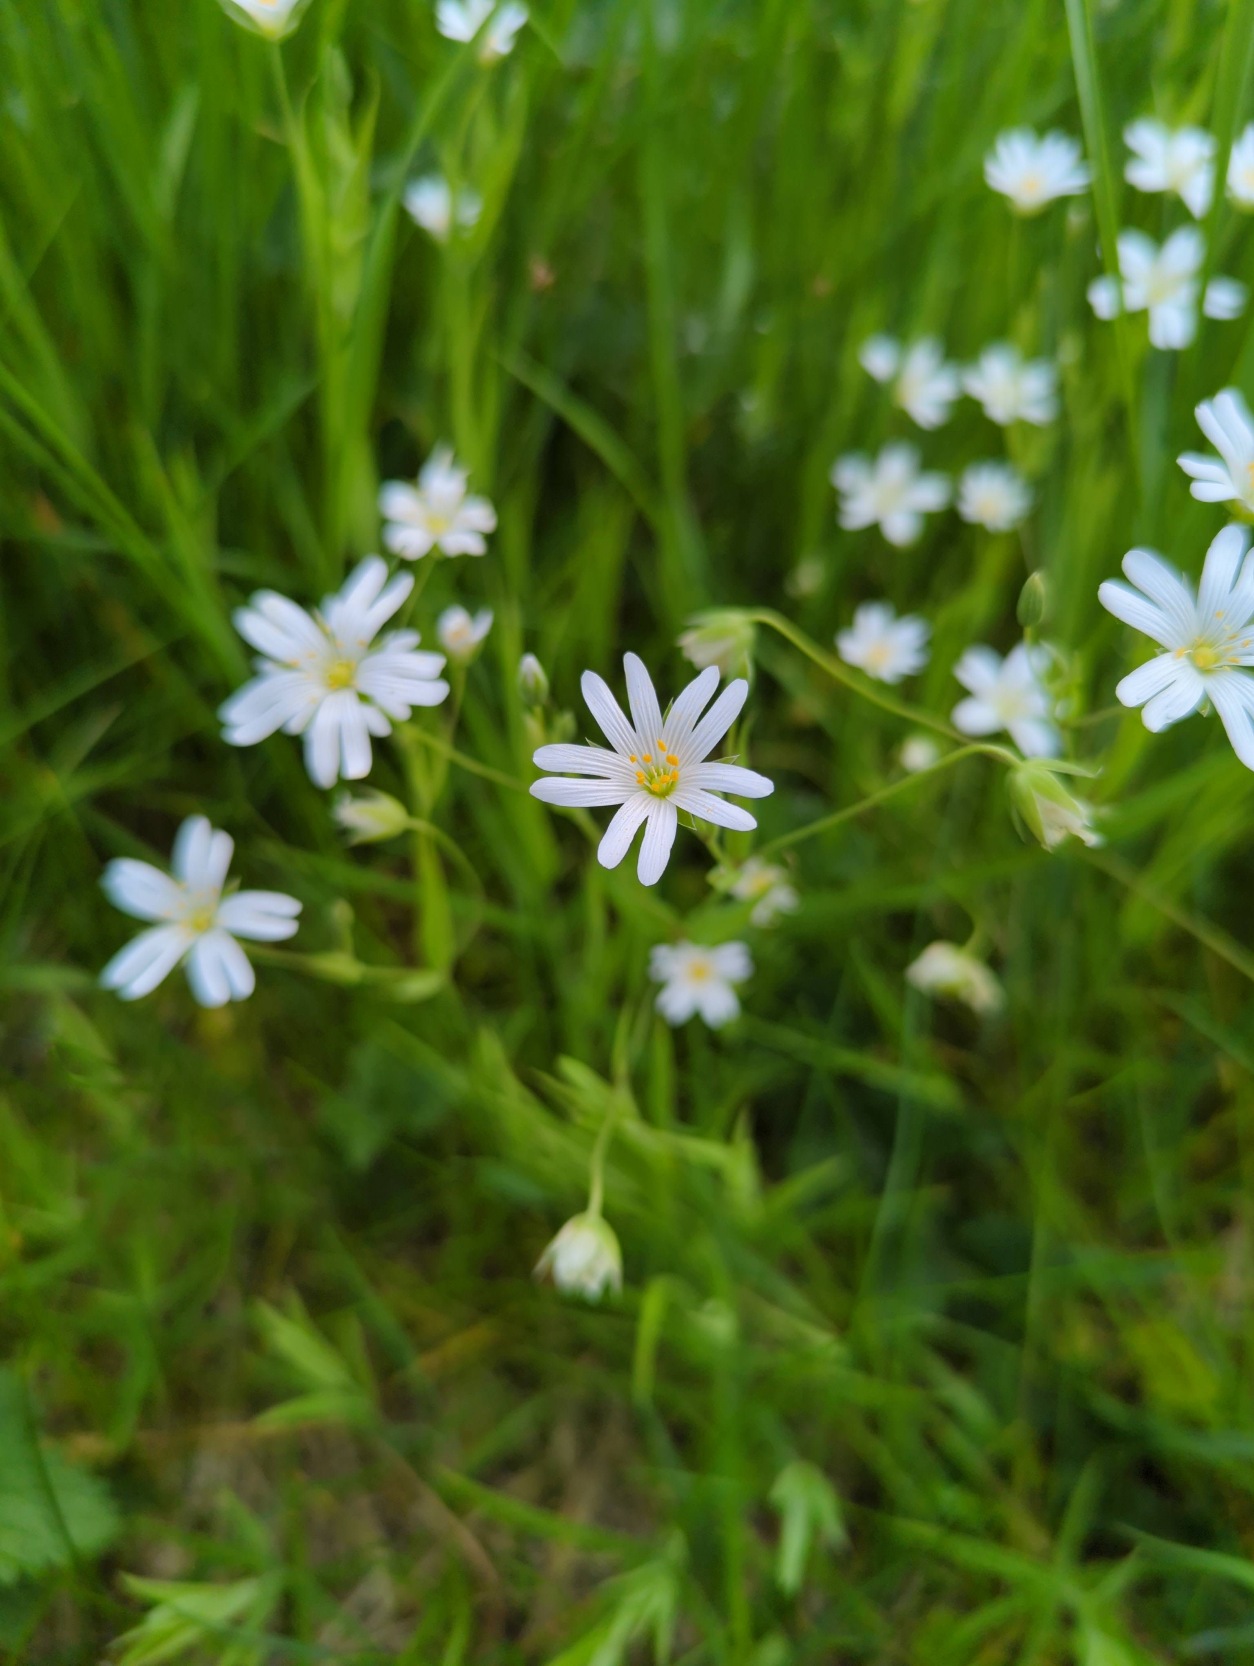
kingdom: Plantae
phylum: Tracheophyta
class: Magnoliopsida
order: Caryophyllales
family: Caryophyllaceae
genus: Rabelera
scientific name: Rabelera holostea
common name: Stor fladstjerne
